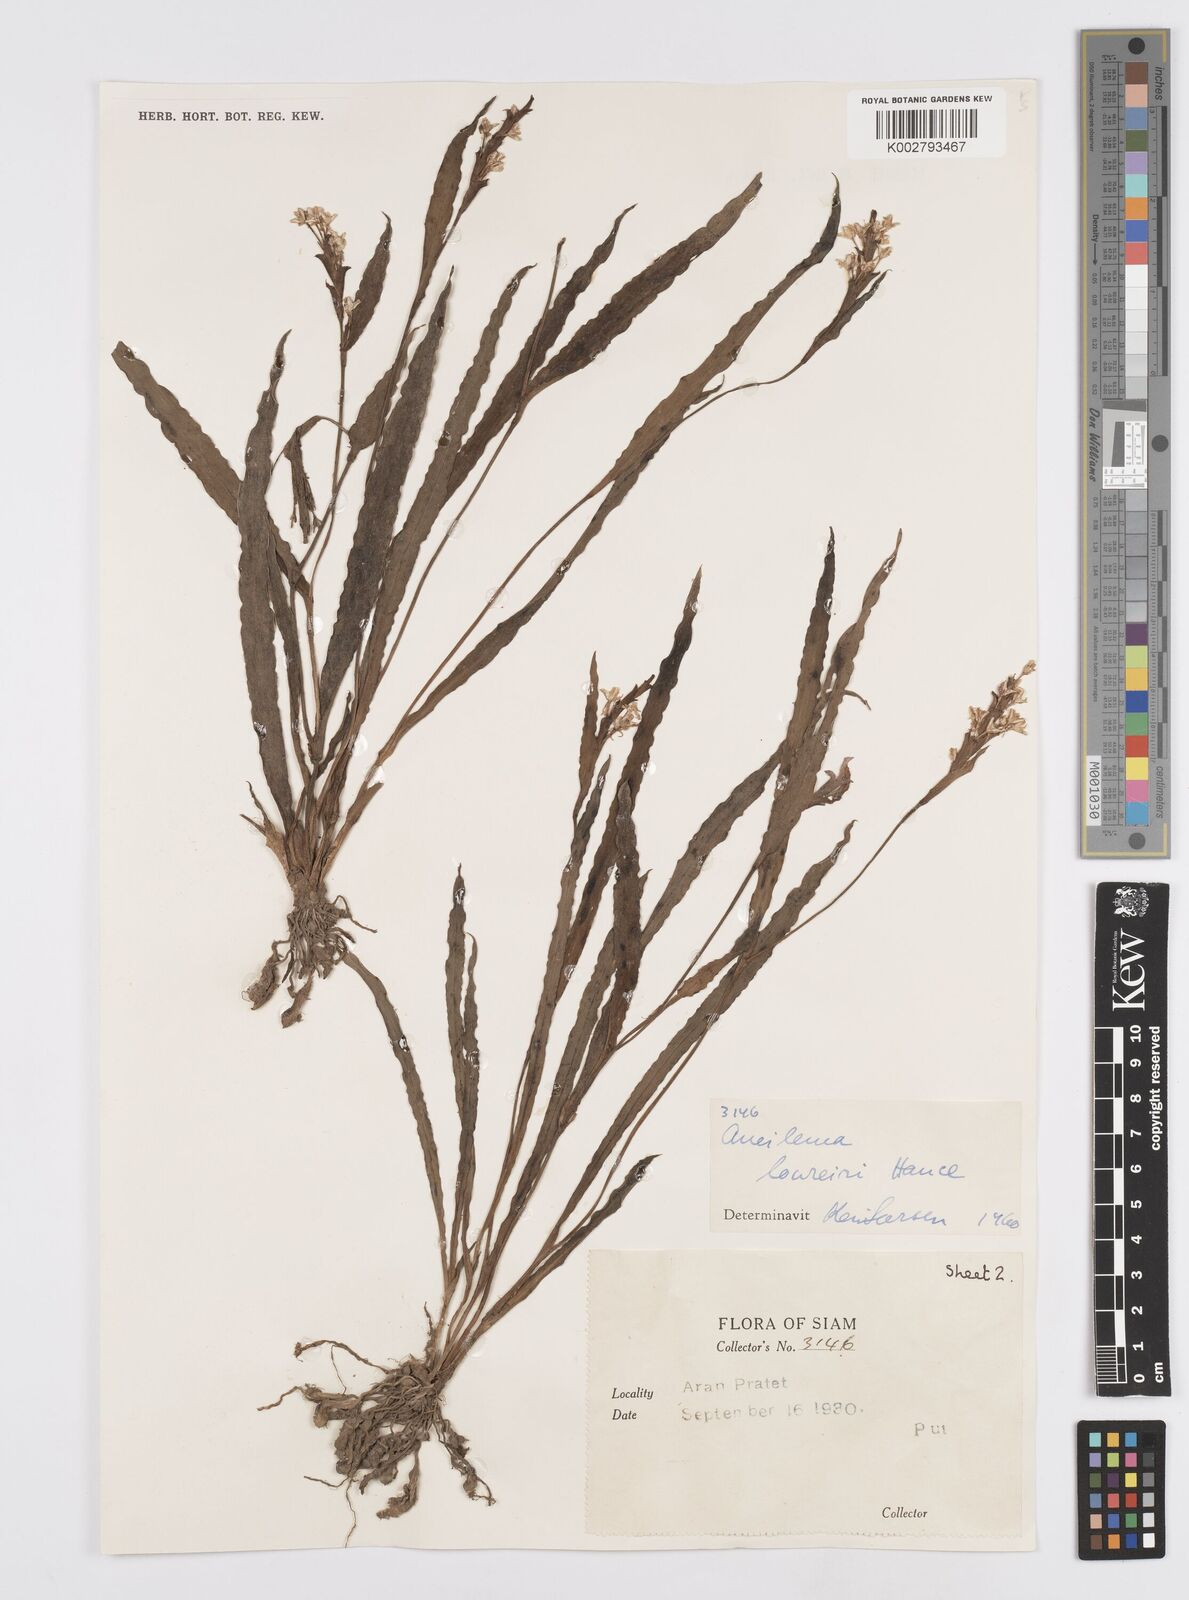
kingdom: Plantae
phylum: Tracheophyta
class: Liliopsida
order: Commelinales
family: Commelinaceae
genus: Murdannia
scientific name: Murdannia edulis
